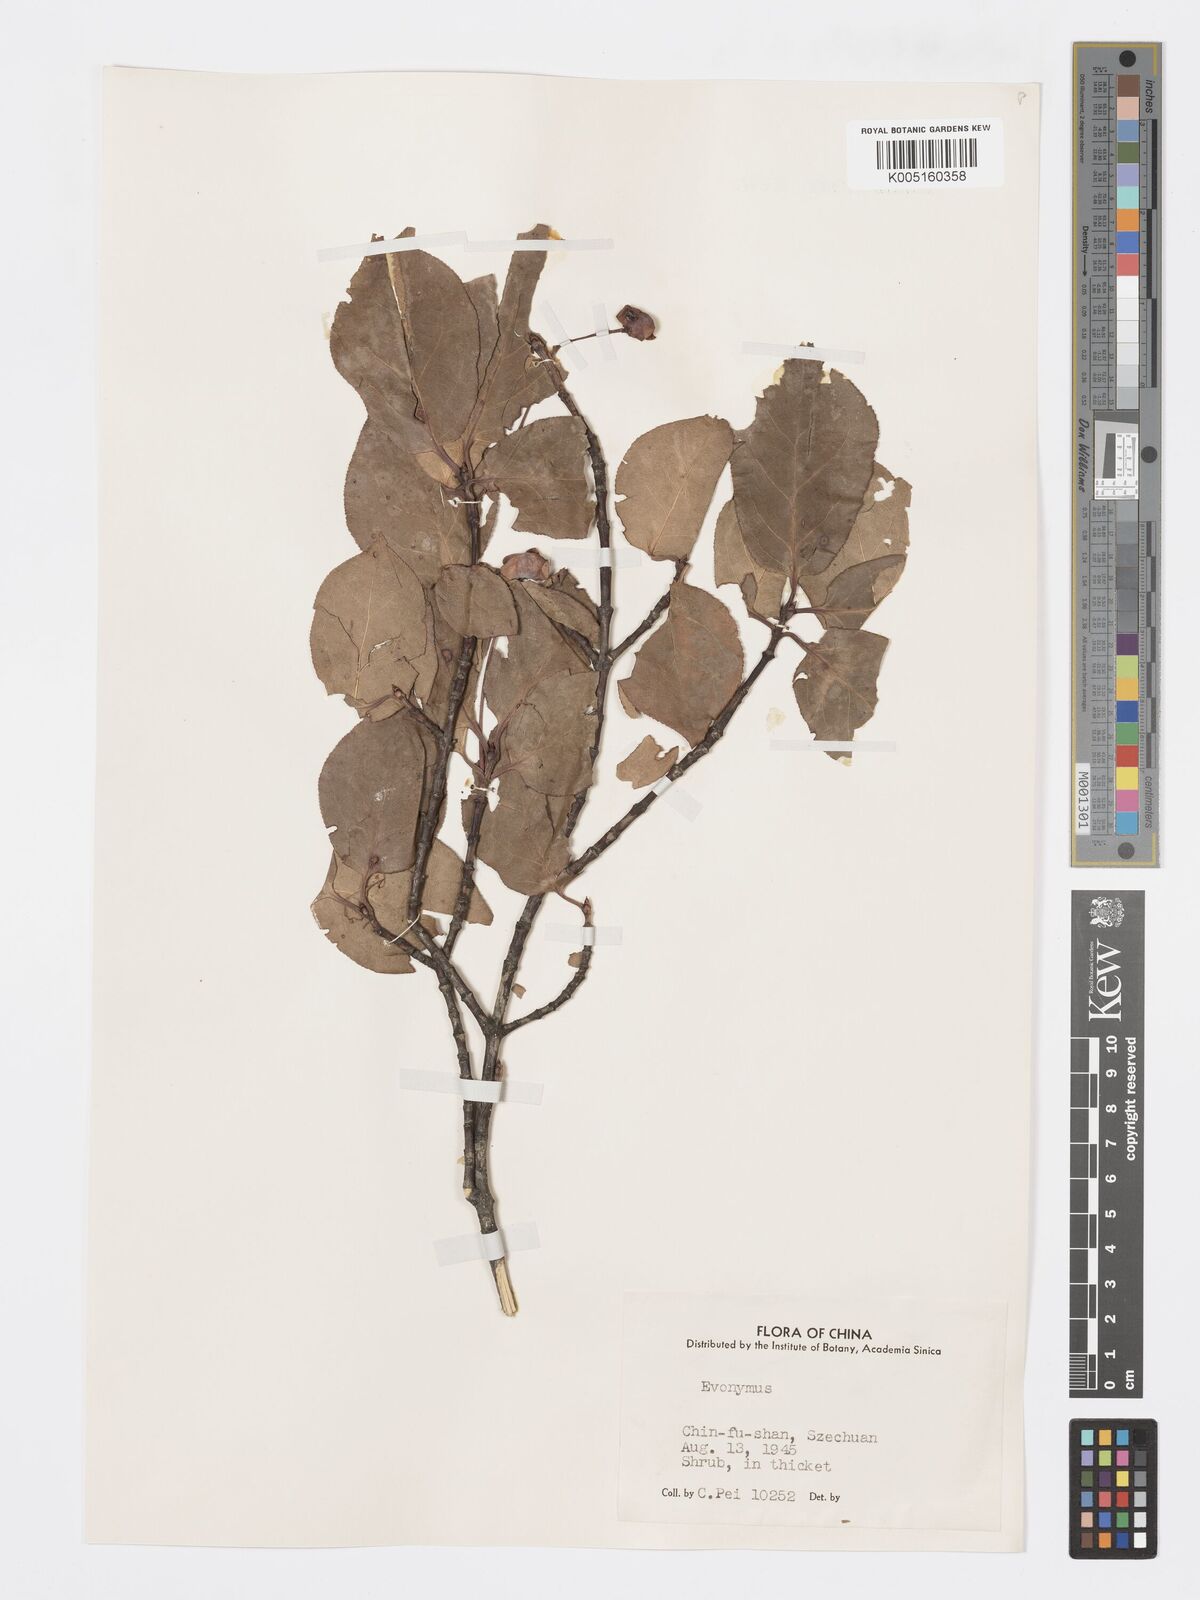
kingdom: Plantae
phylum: Tracheophyta
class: Magnoliopsida
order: Celastrales
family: Celastraceae
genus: Euonymus
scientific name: Euonymus sanguineus
